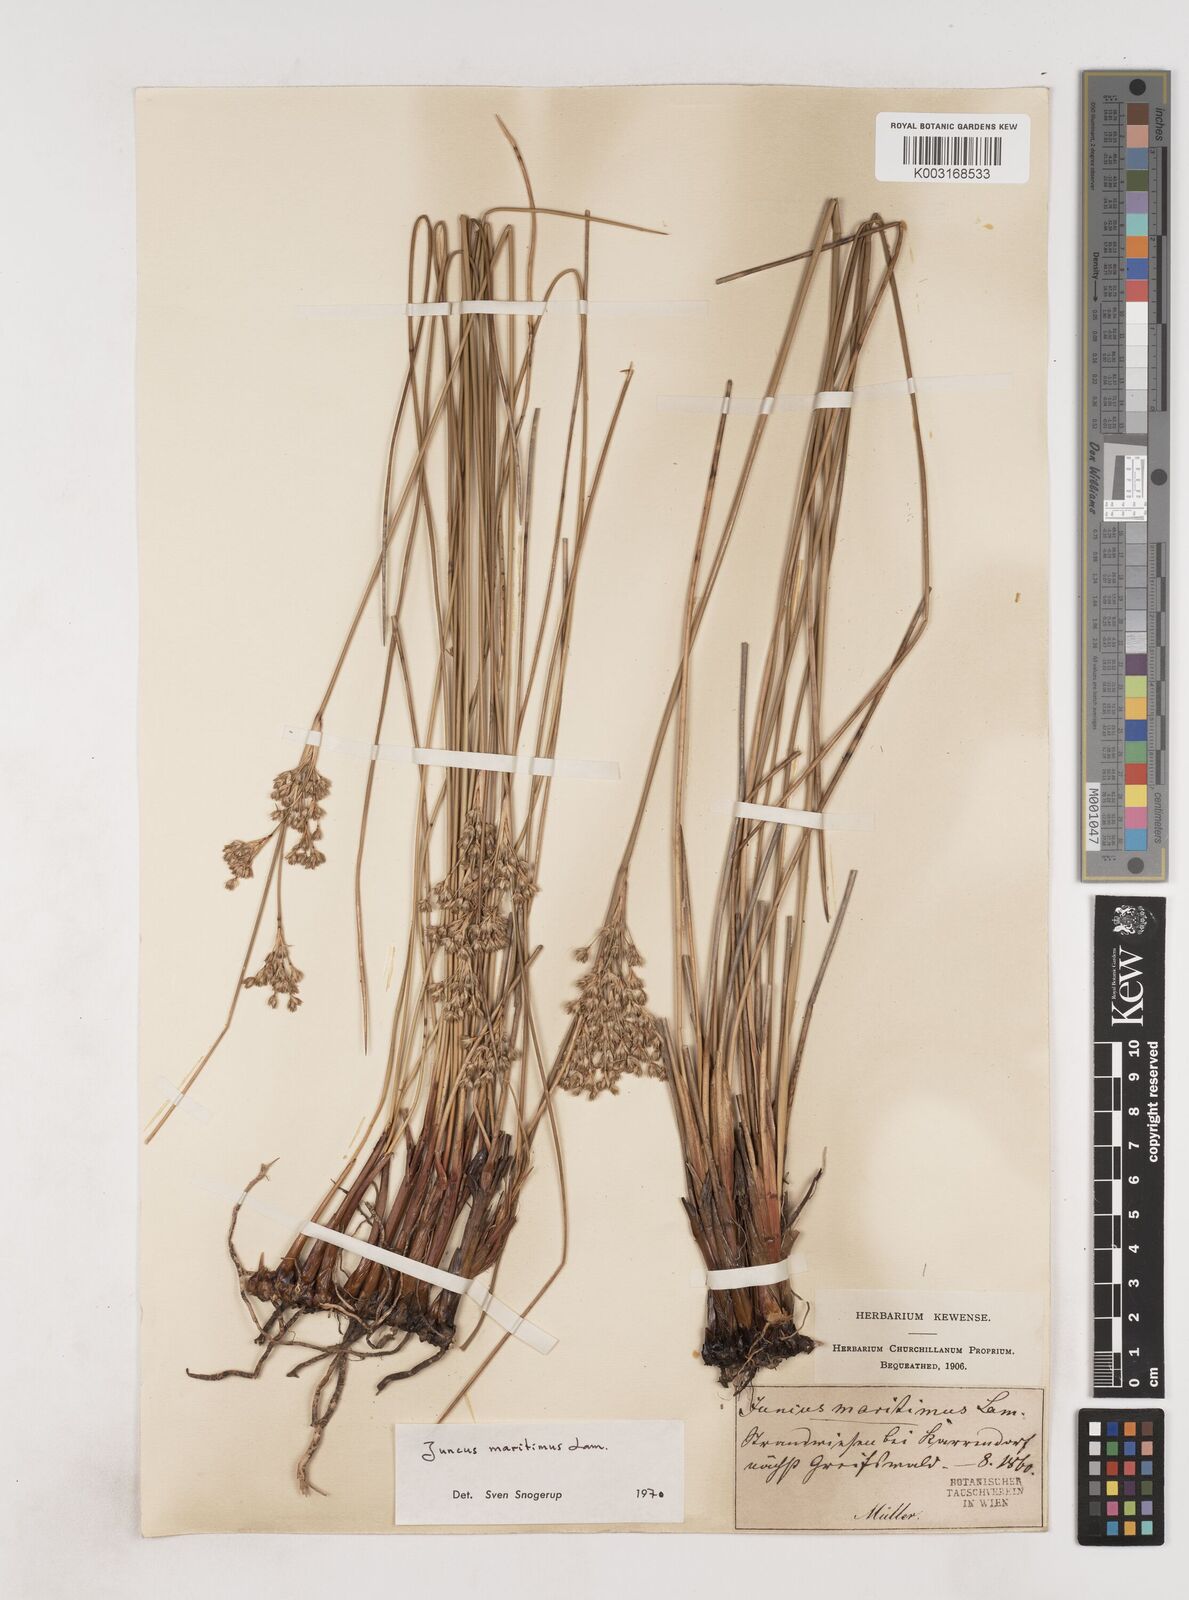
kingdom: Plantae
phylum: Tracheophyta
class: Liliopsida
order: Poales
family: Juncaceae
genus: Juncus
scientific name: Juncus maritimus
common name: Sea rush
